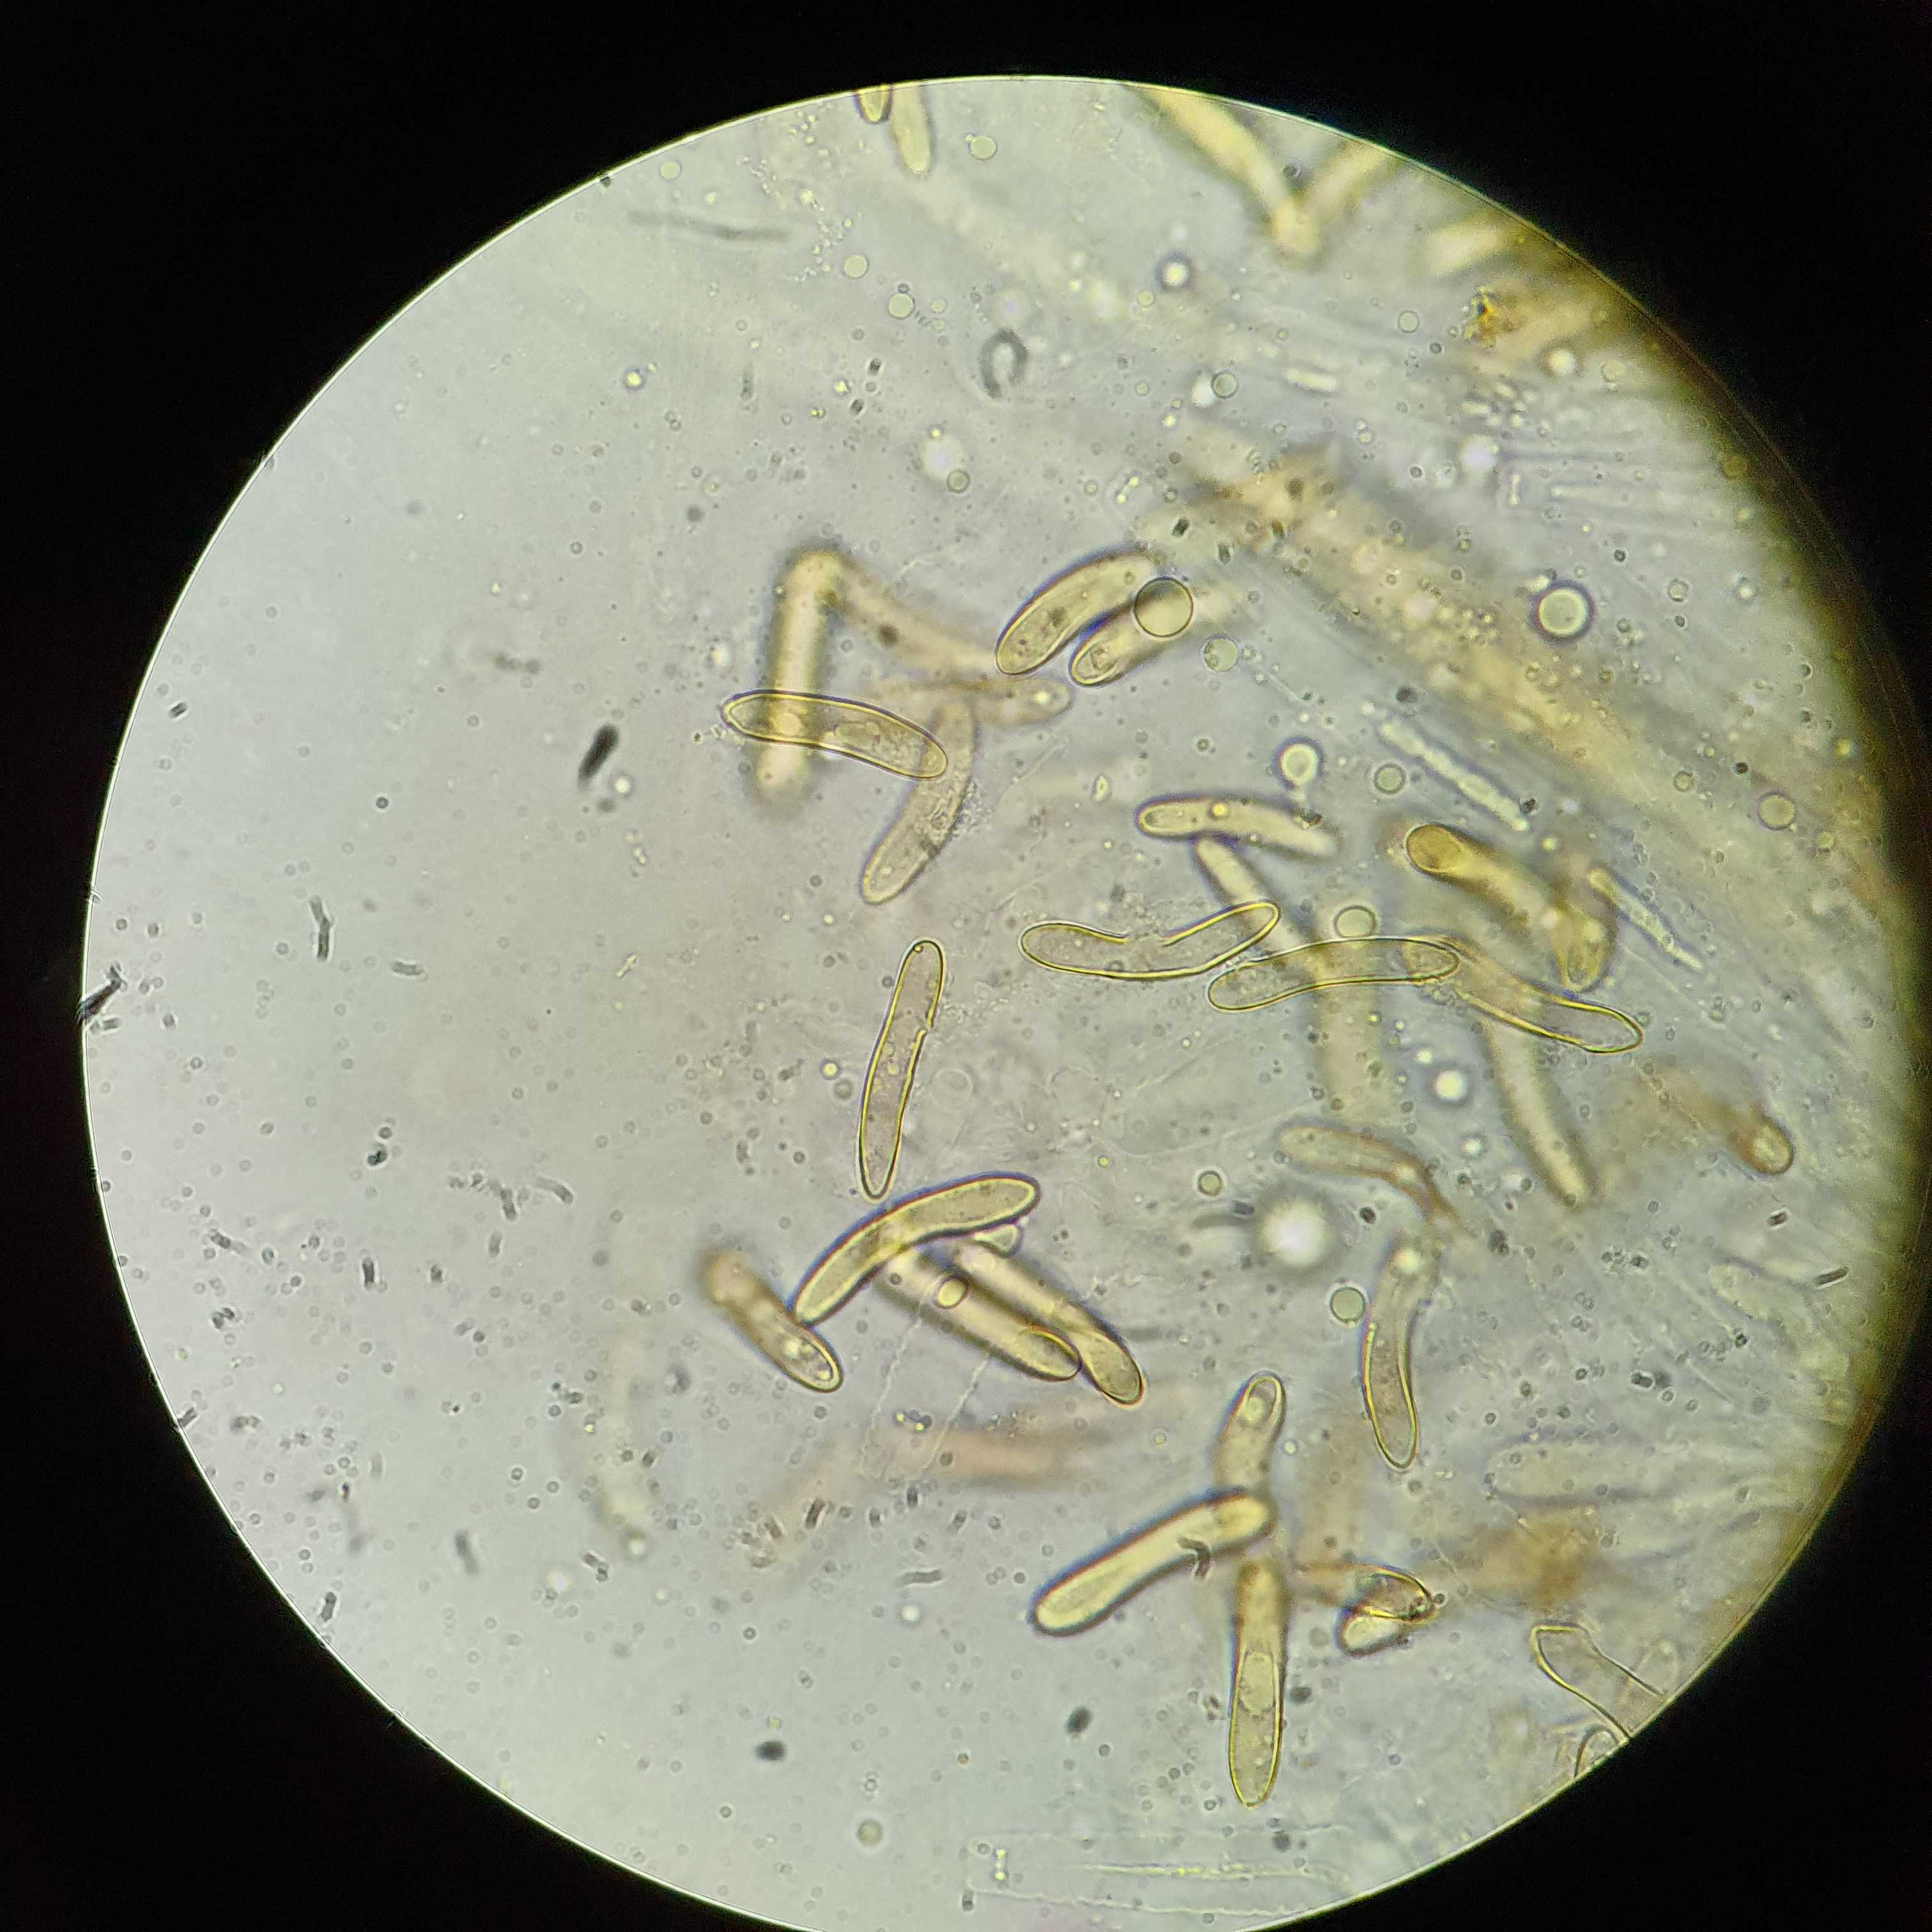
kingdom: Fungi
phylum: Ascomycota
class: Sordariomycetes
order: Sordariales
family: Helminthosphaeriaceae
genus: Echinosphaeria
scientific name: Echinosphaeria canescens
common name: brun børstekerne
